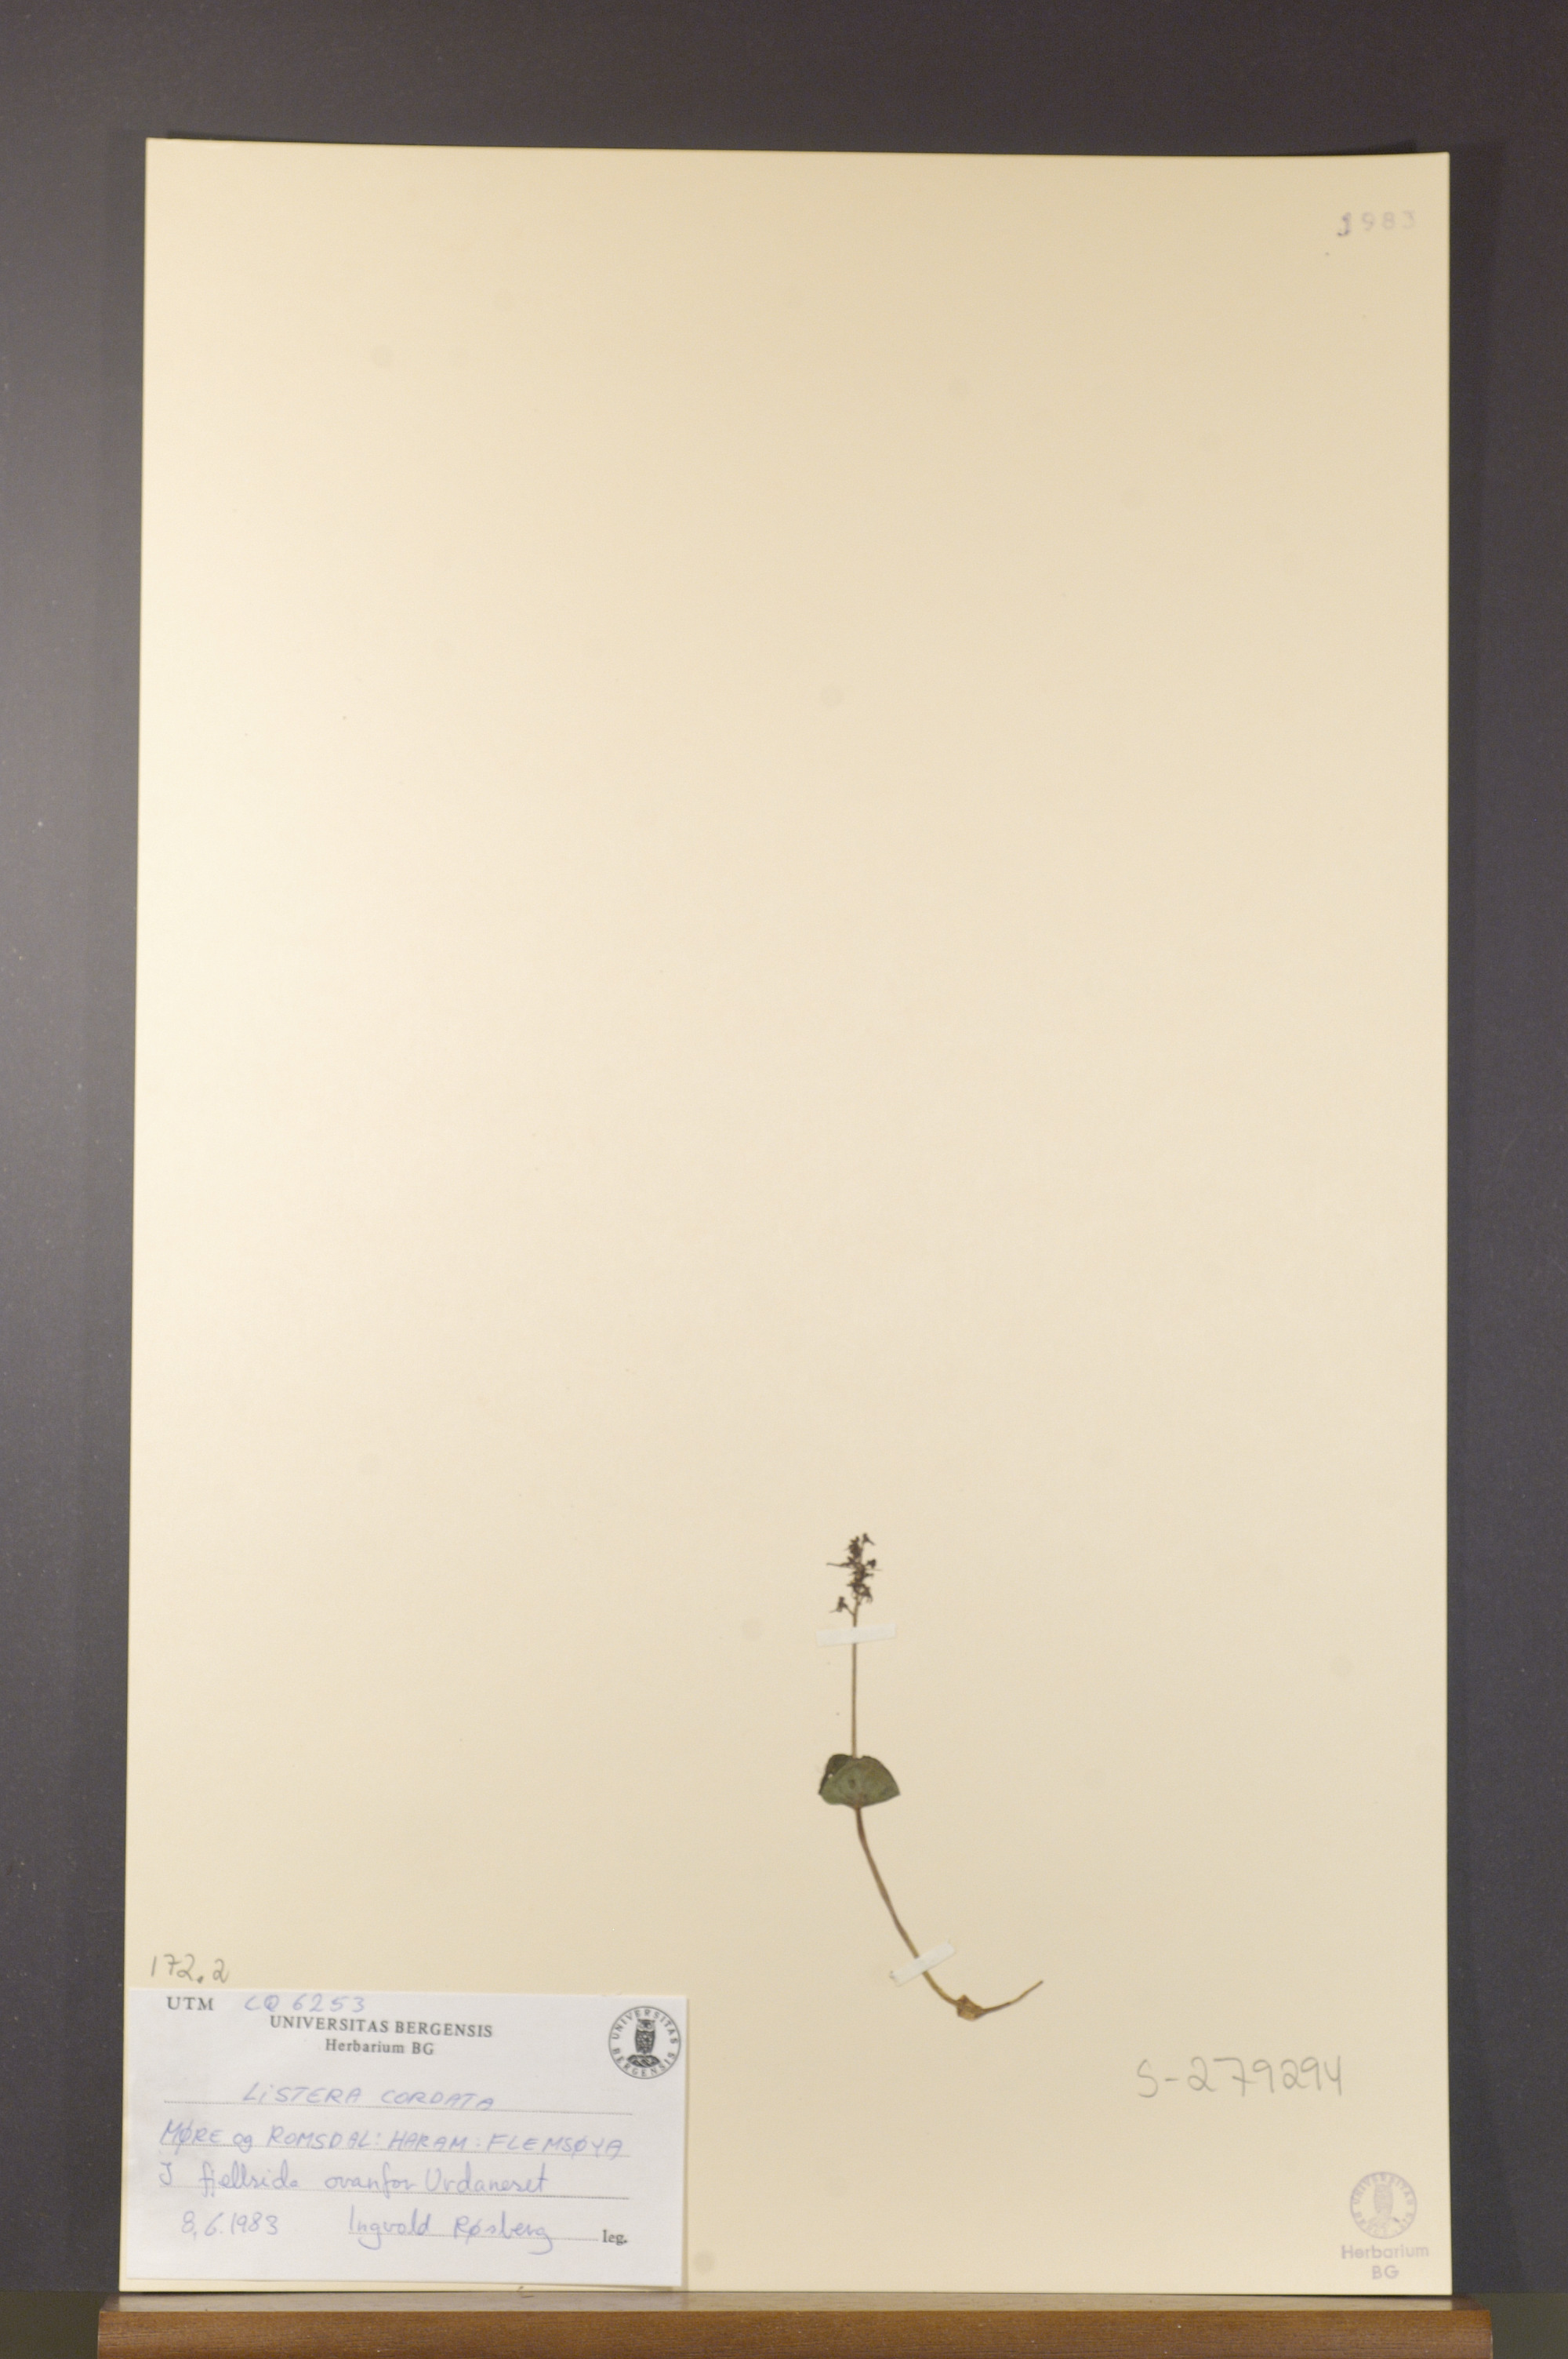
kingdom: Plantae
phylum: Tracheophyta
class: Liliopsida
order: Asparagales
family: Orchidaceae
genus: Neottia
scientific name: Neottia cordata
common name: Lesser twayblade
